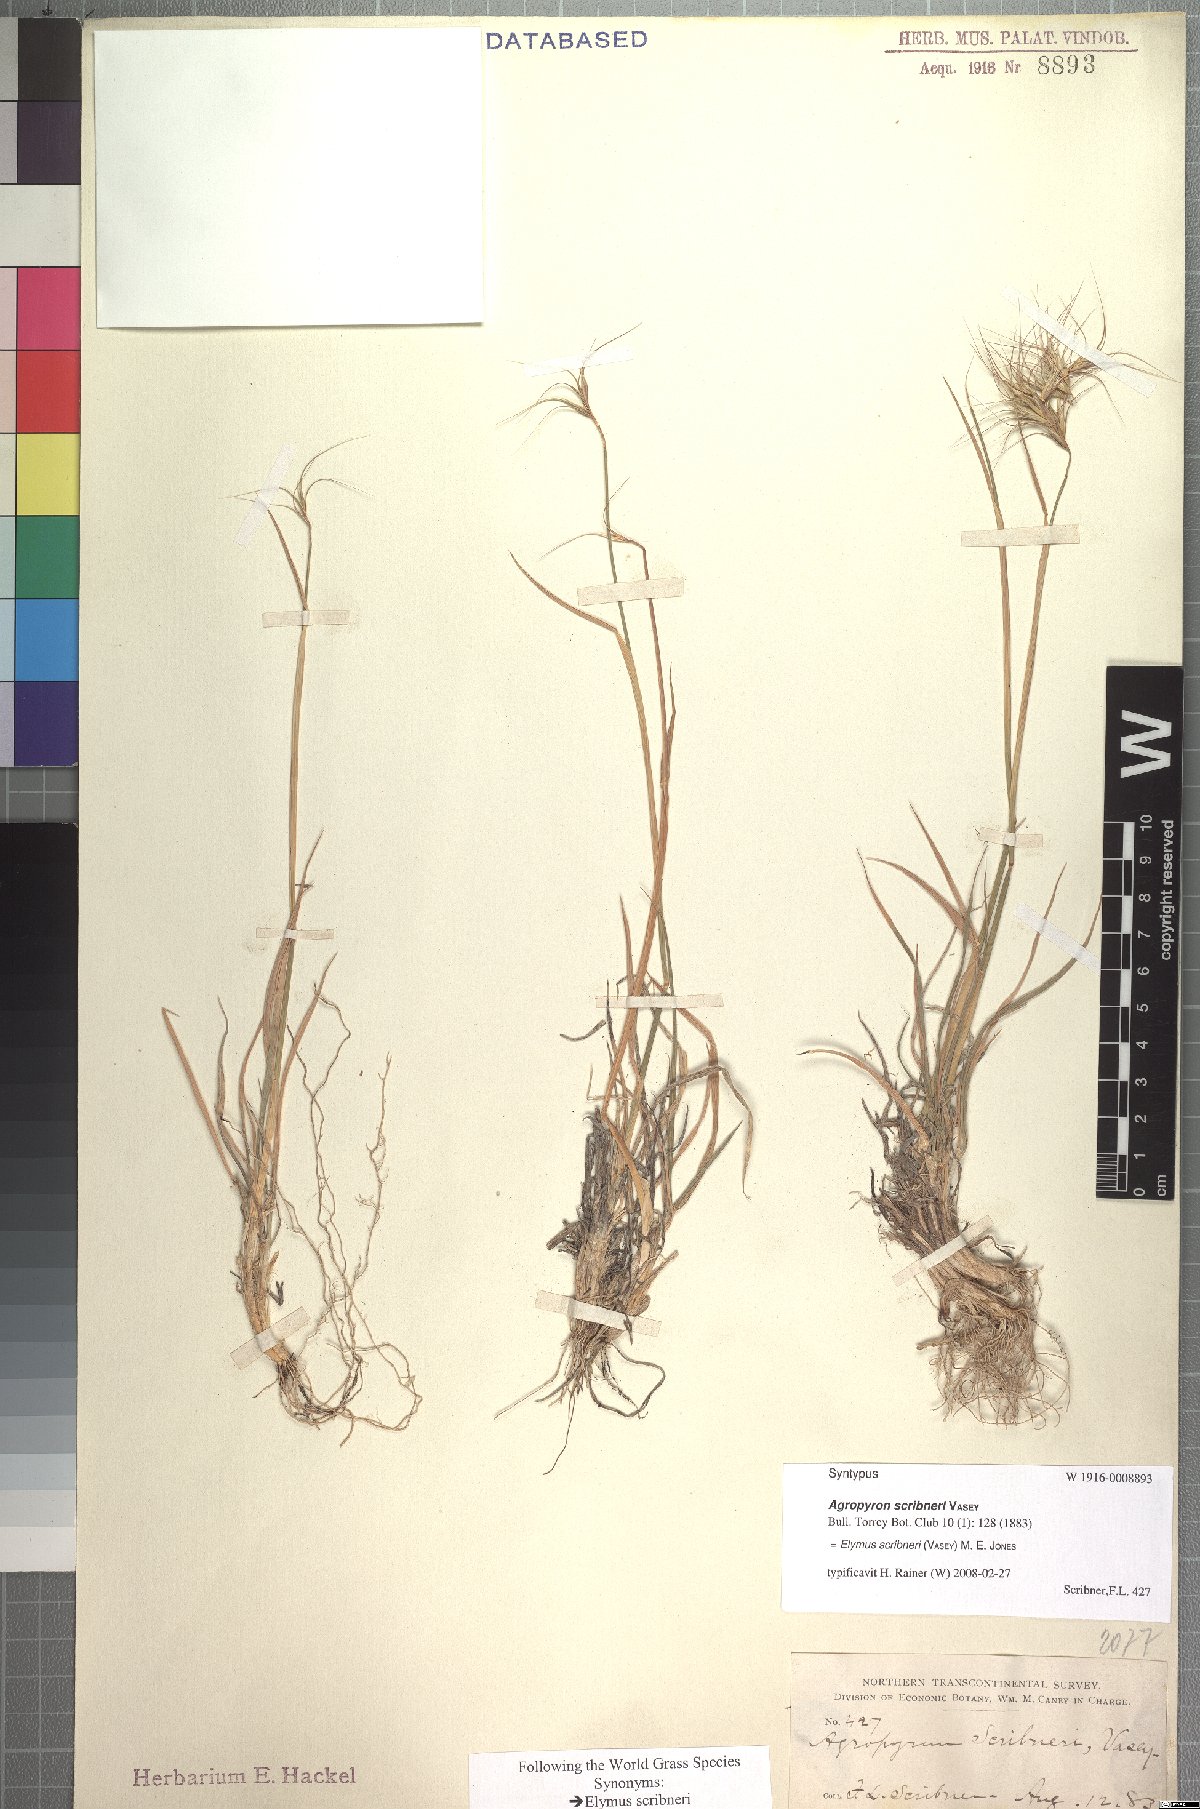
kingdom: Plantae
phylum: Tracheophyta
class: Liliopsida
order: Poales
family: Poaceae
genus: Elymus
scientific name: Elymus scribneri
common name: Scribner's wheatgrass
